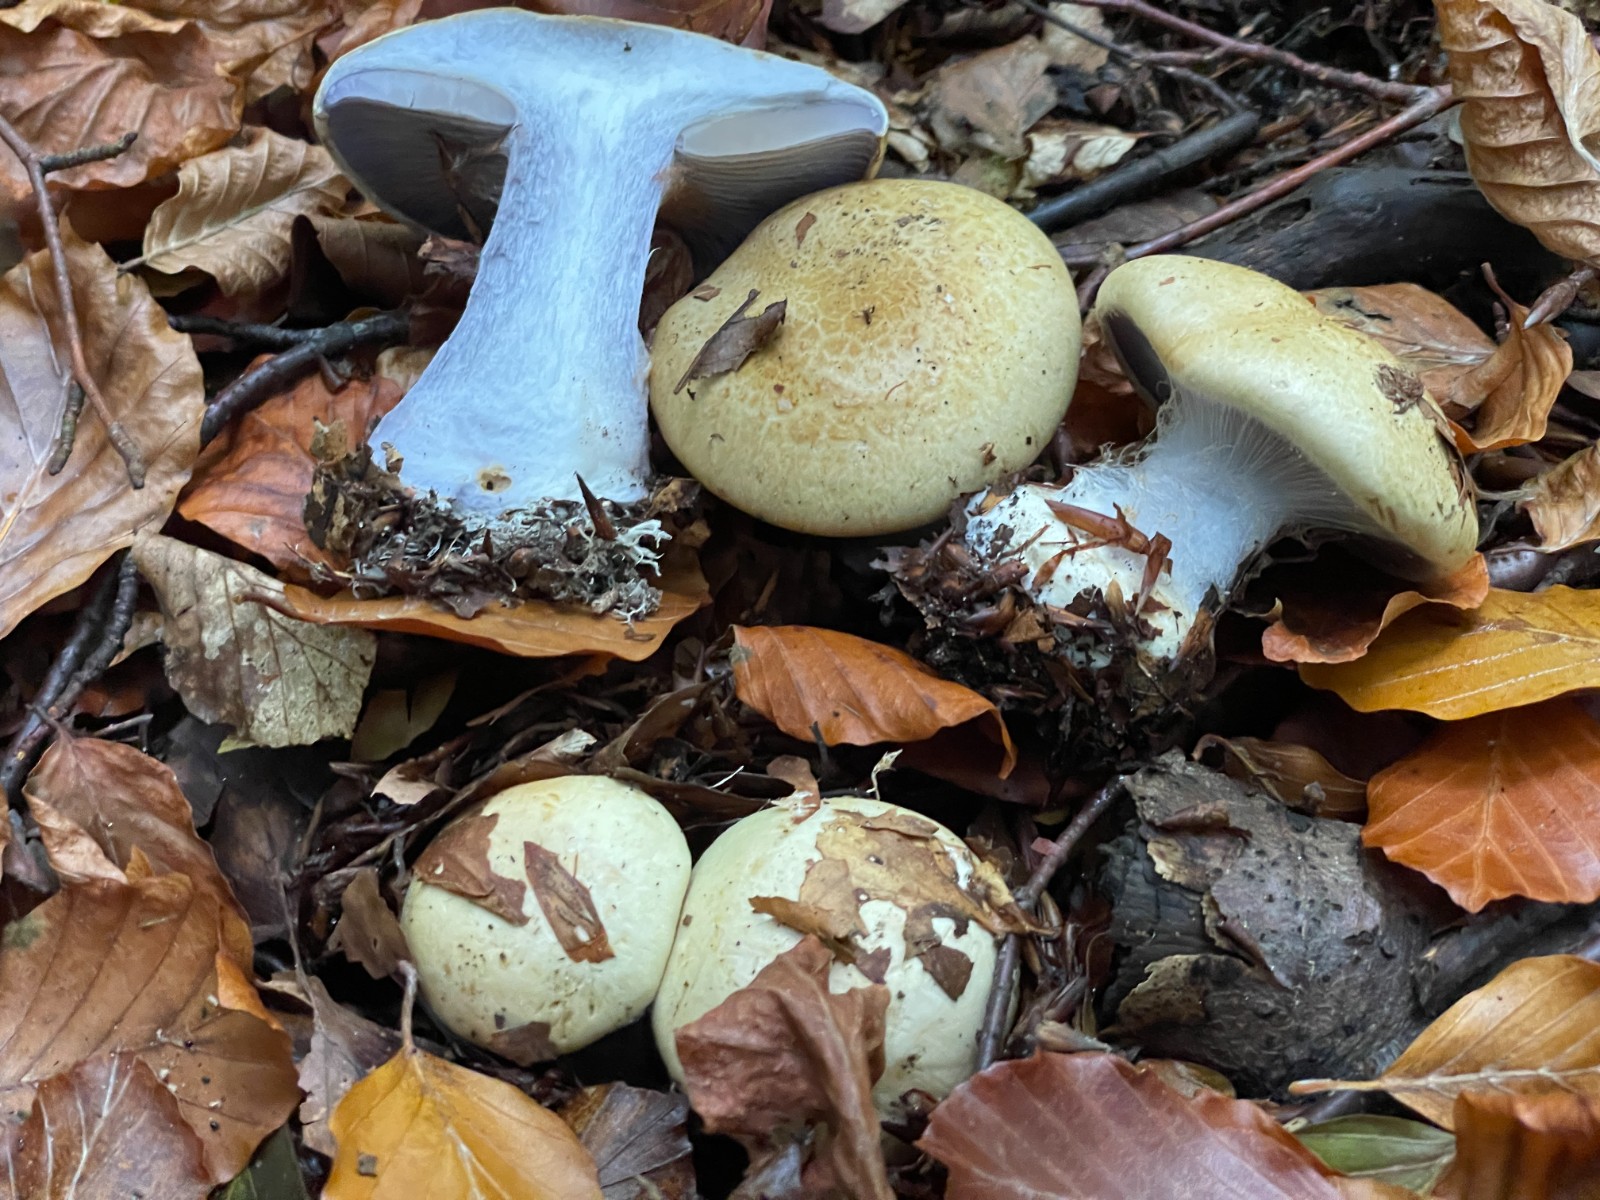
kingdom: Fungi
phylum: Basidiomycota
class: Agaricomycetes
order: Agaricales
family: Cortinariaceae
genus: Cortinarius
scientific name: Cortinarius anserinus
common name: bøge-slørhat
